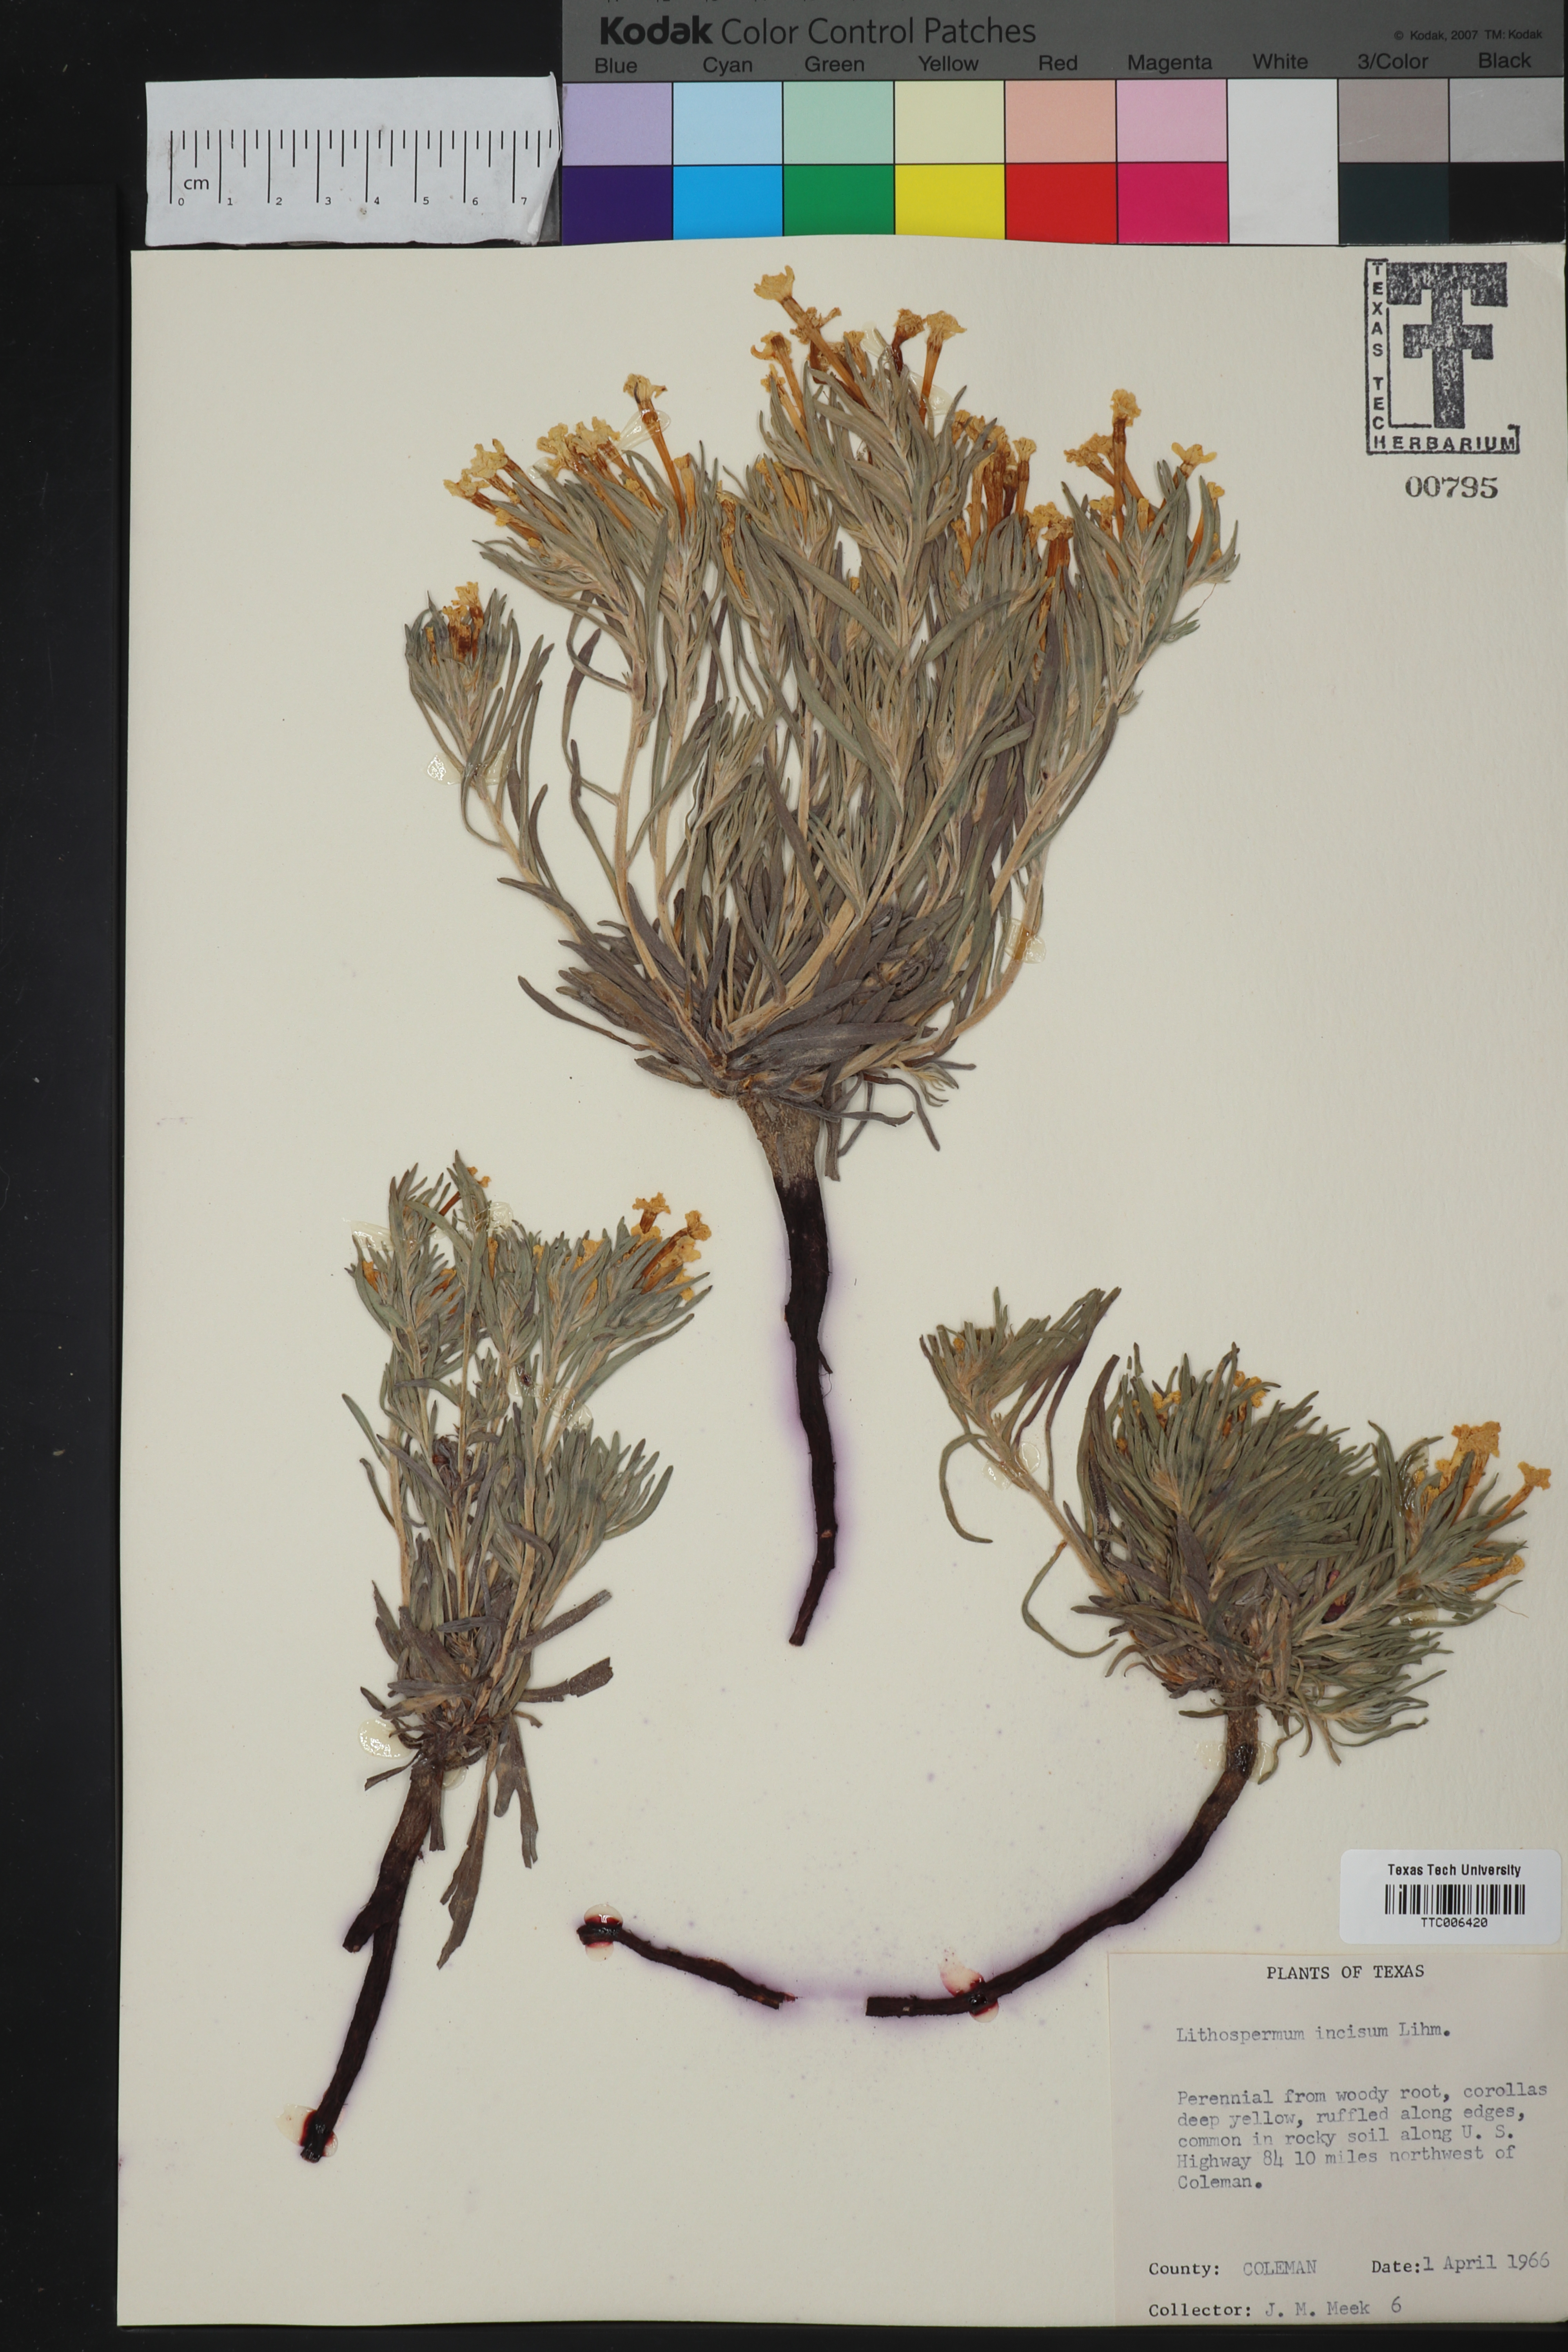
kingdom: Plantae
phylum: Tracheophyta
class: Magnoliopsida
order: Boraginales
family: Boraginaceae
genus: Lithospermum
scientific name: Lithospermum incisum
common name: Fringed gromwell
